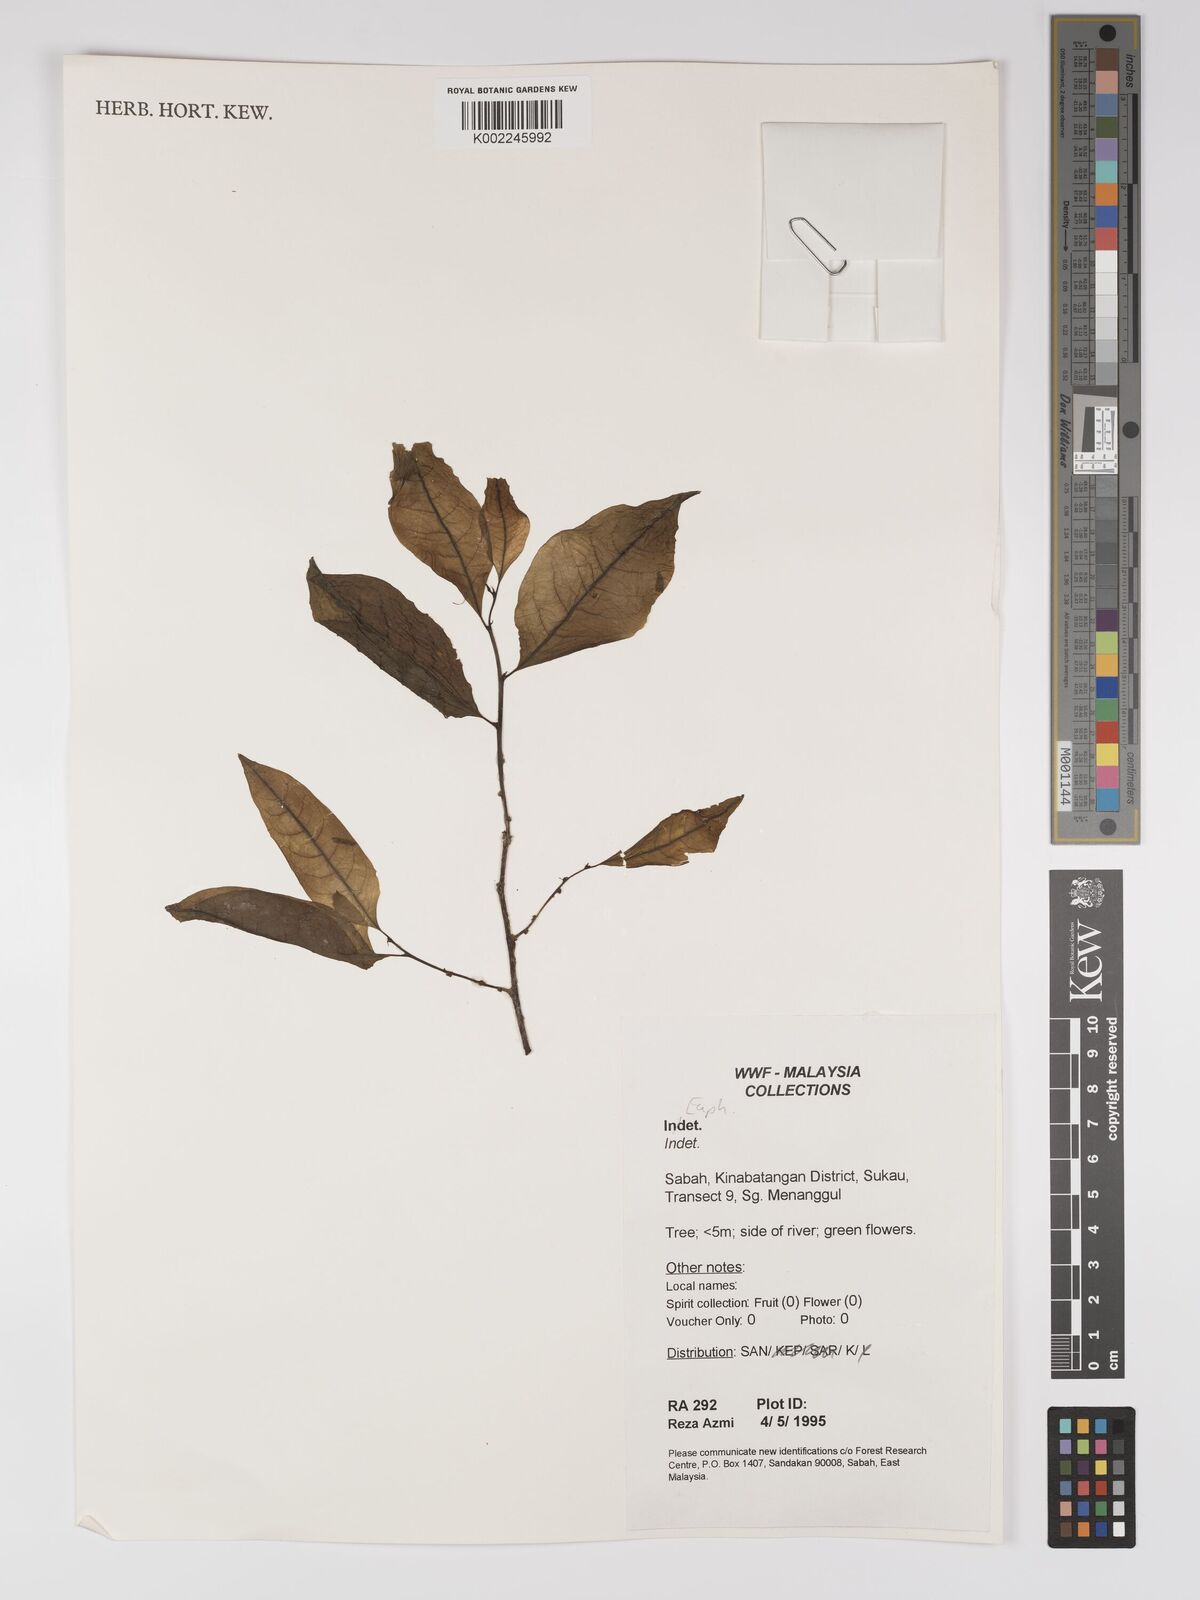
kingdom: Plantae
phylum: Tracheophyta
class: Magnoliopsida
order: Malpighiales
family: Euphorbiaceae
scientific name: Euphorbiaceae
